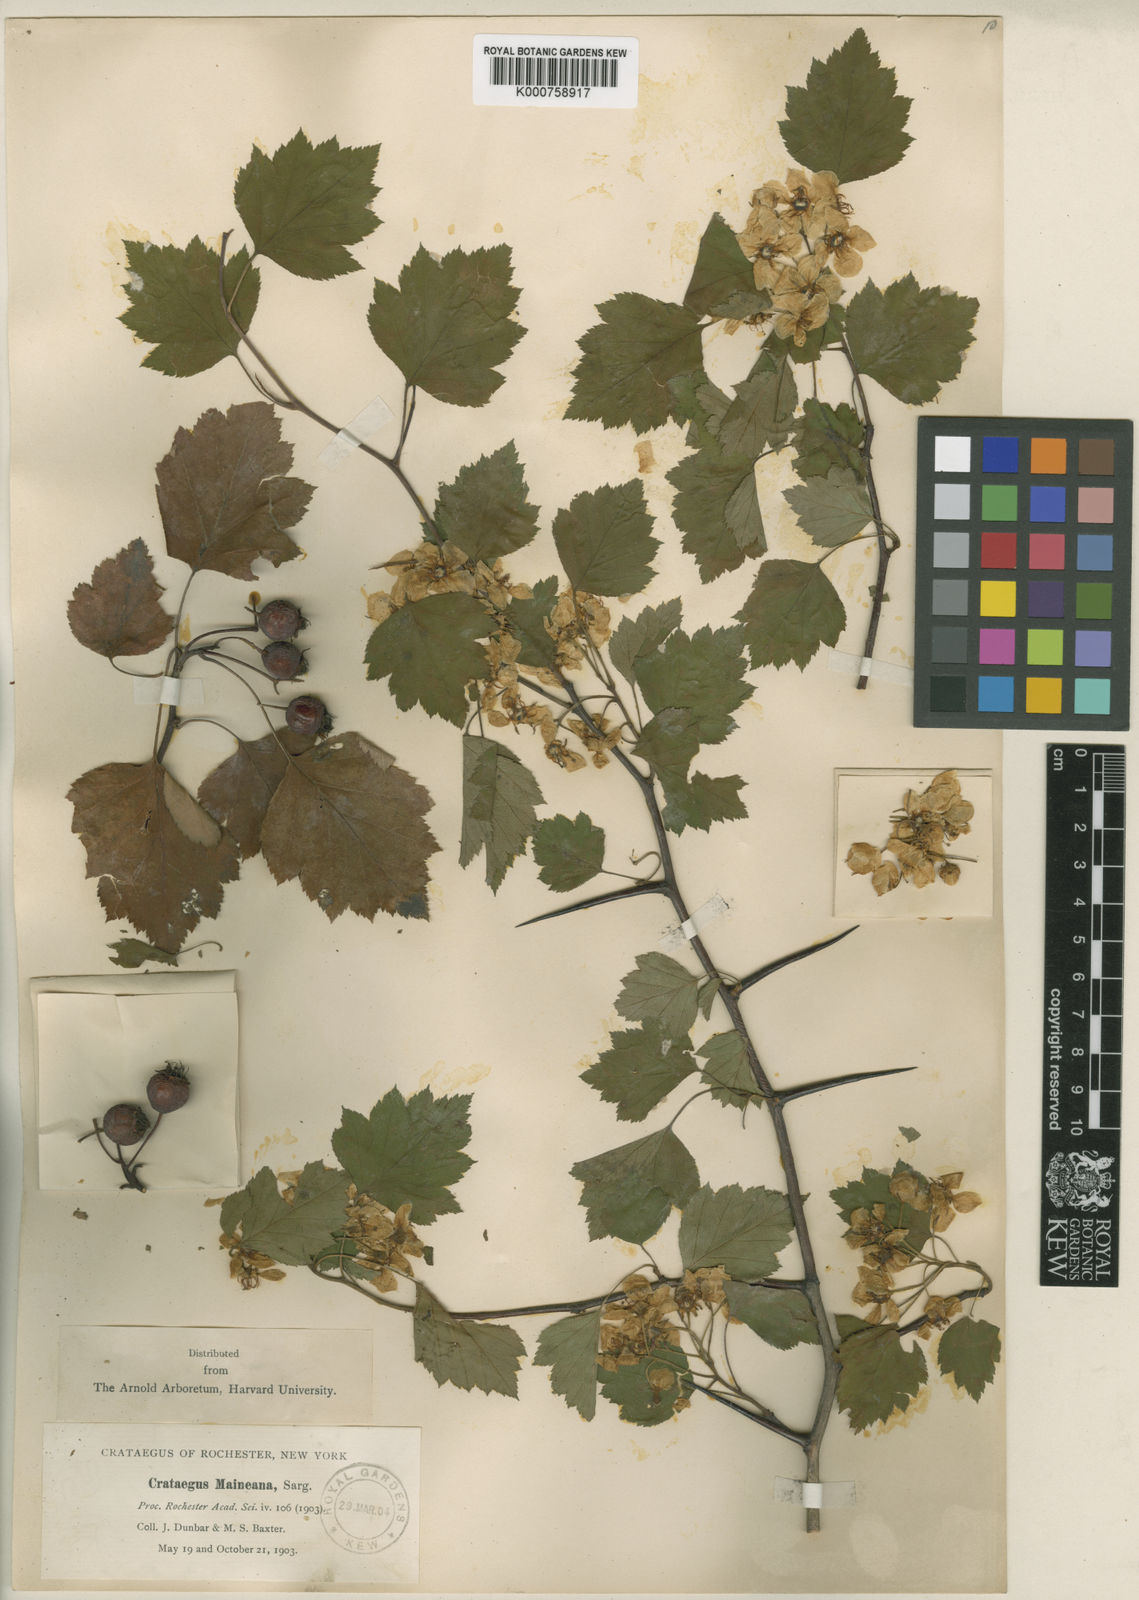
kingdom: Plantae
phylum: Tracheophyta
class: Magnoliopsida
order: Rosales
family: Rosaceae
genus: Crataegus
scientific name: Crataegus pruinosa
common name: Waxy-fruit hawthorn
